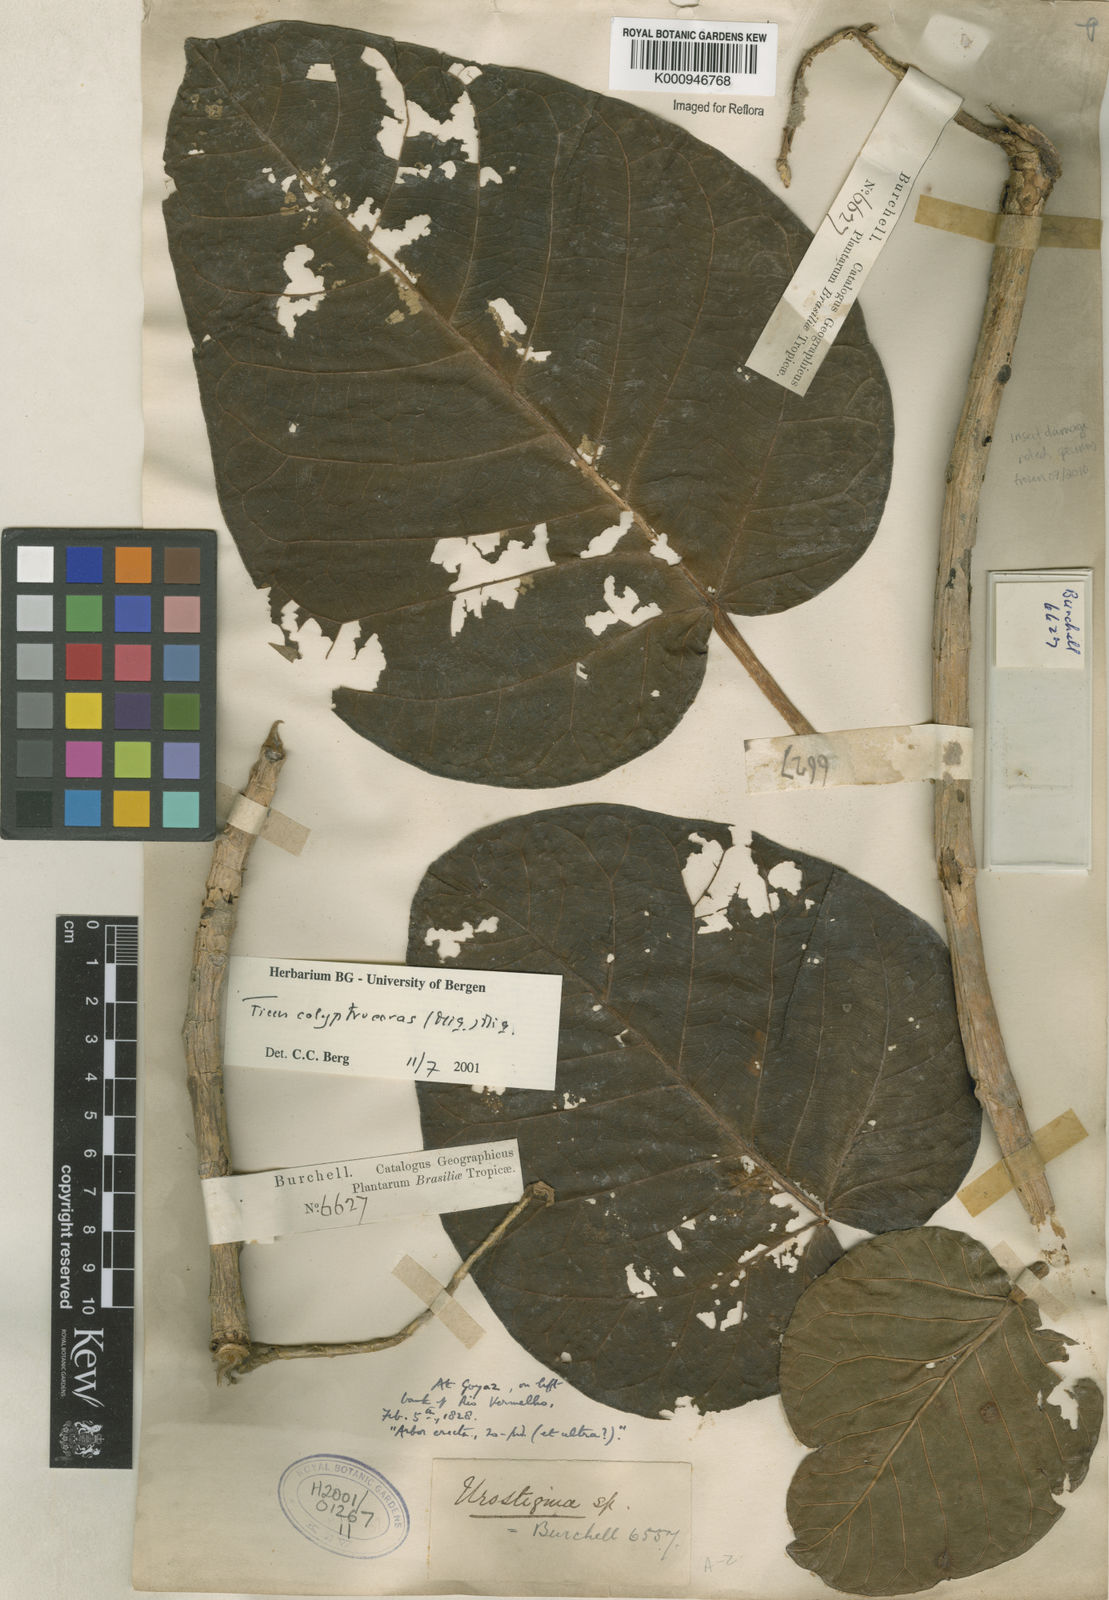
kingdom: Plantae
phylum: Tracheophyta
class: Magnoliopsida
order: Rosales
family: Moraceae
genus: Ficus
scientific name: Ficus calyptroceras
